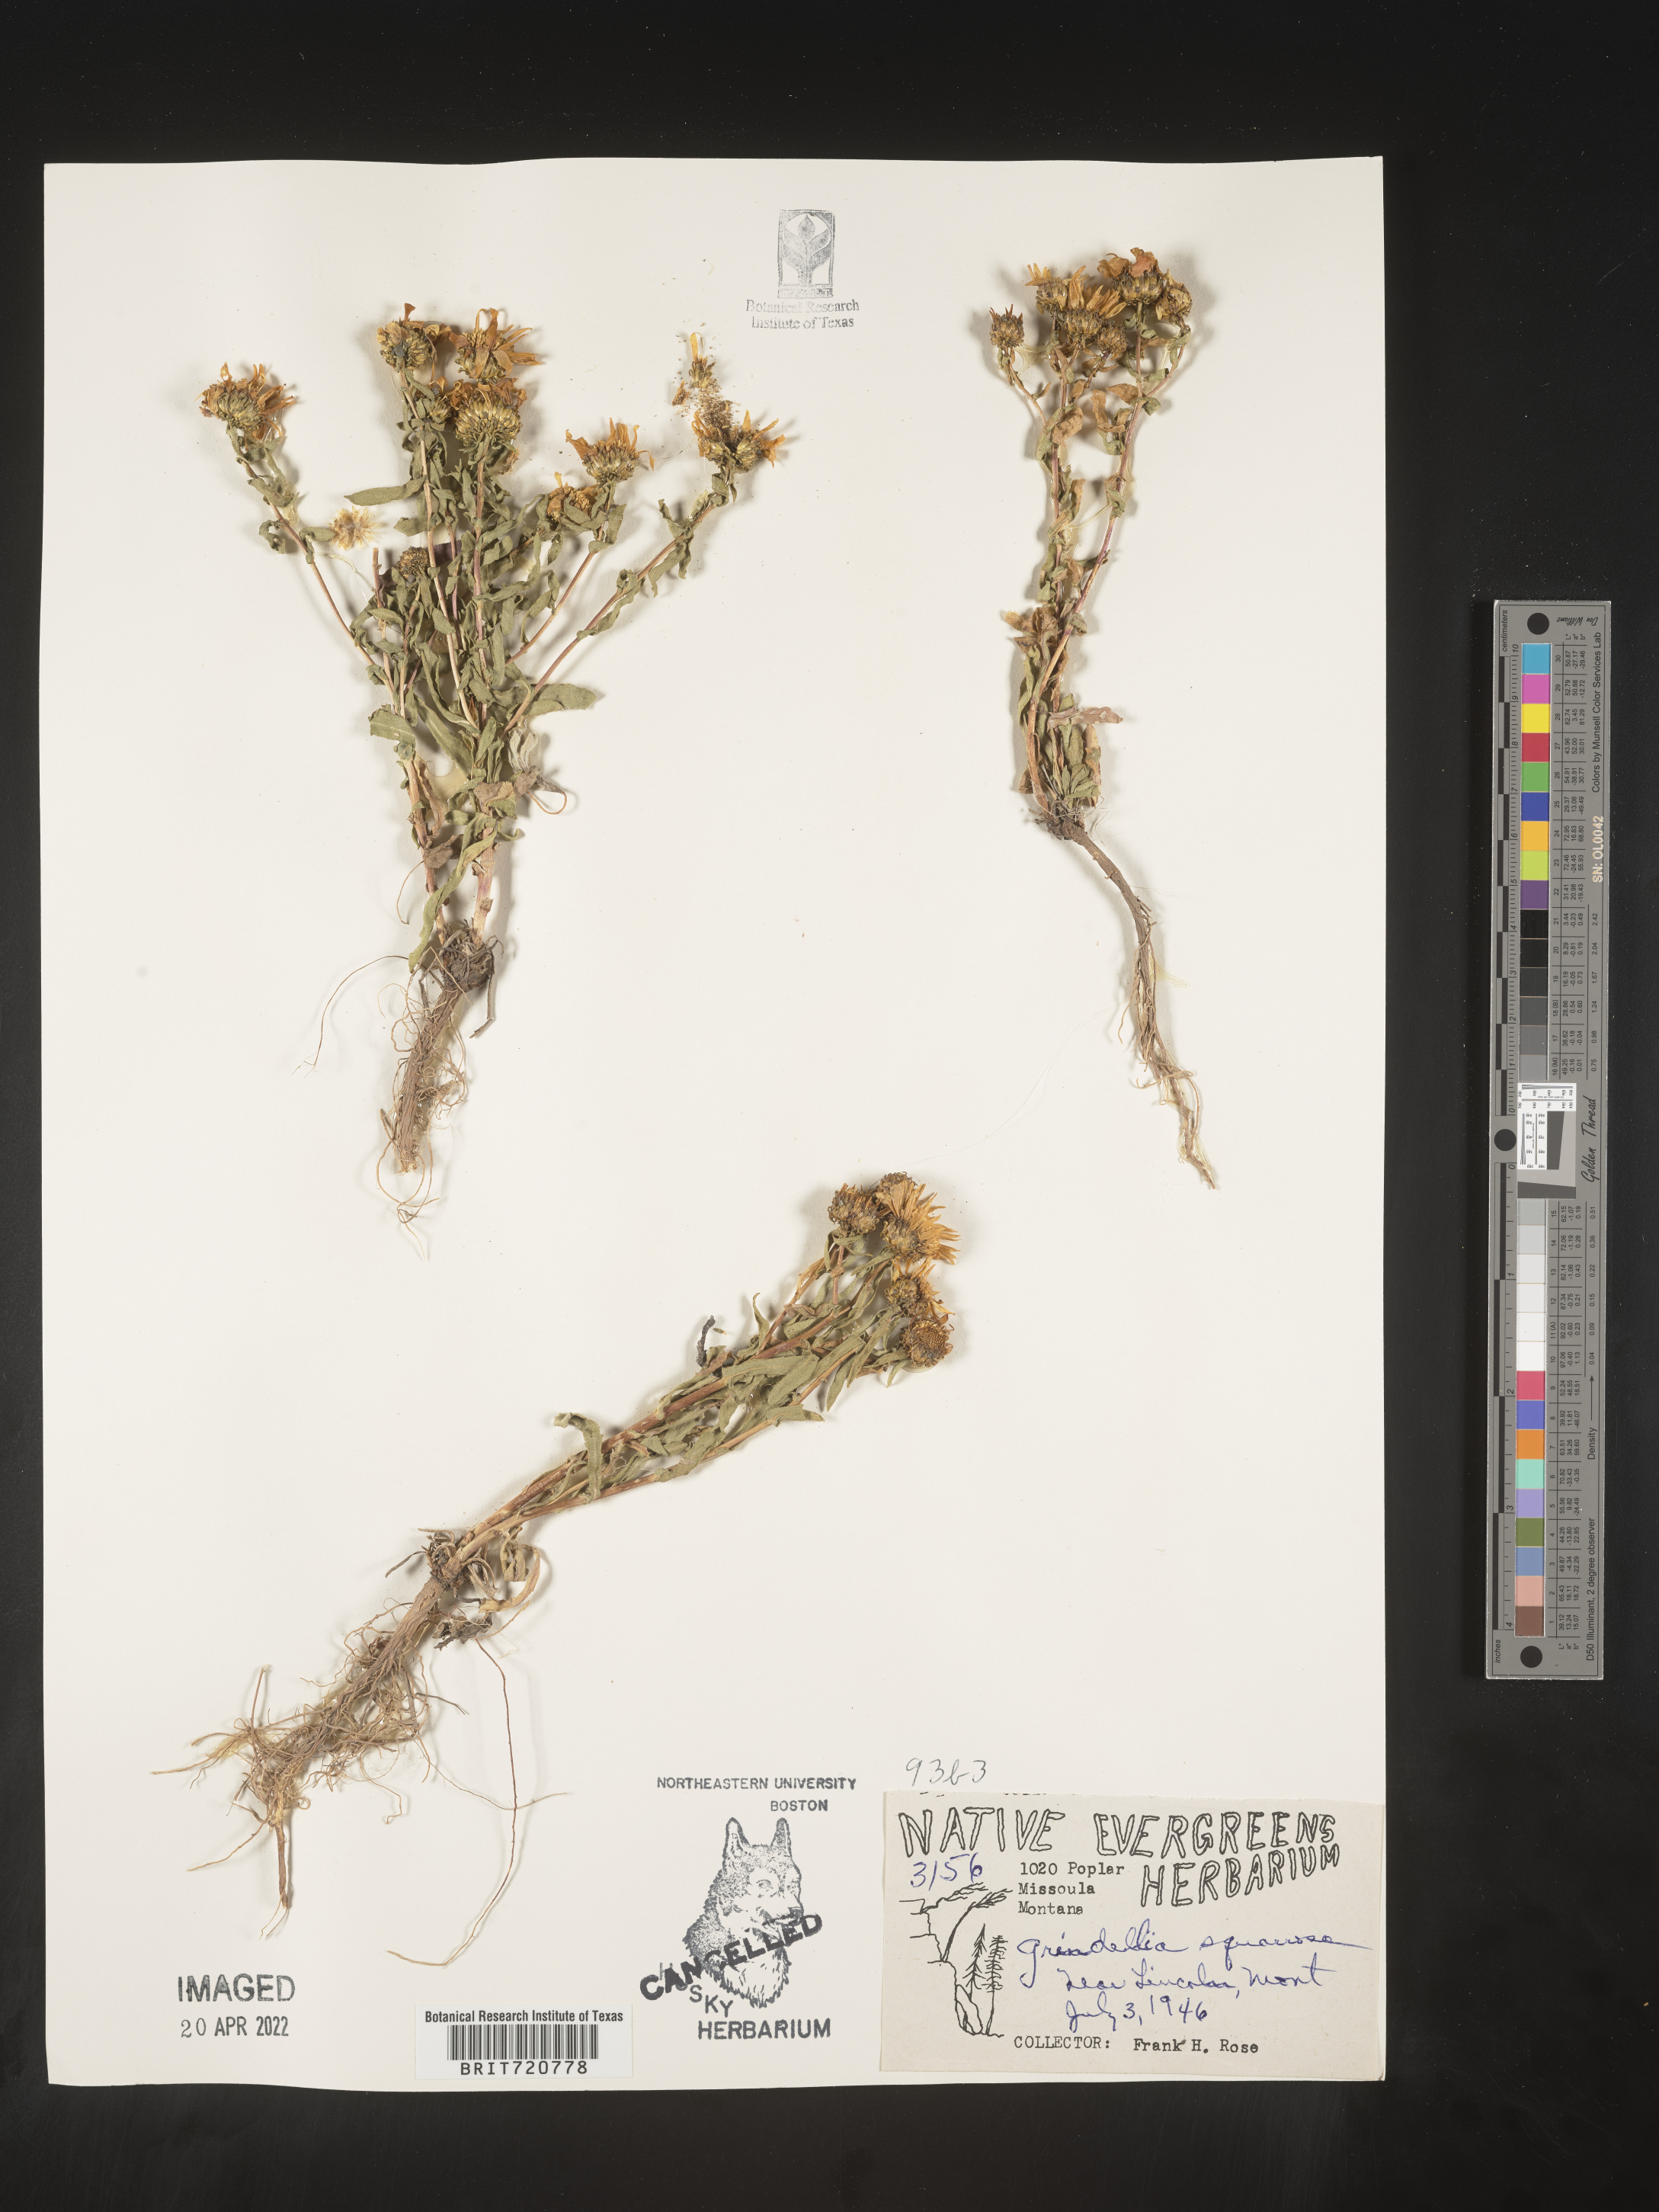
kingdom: Plantae
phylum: Tracheophyta
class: Magnoliopsida
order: Asterales
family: Asteraceae
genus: Grindelia
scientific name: Grindelia
